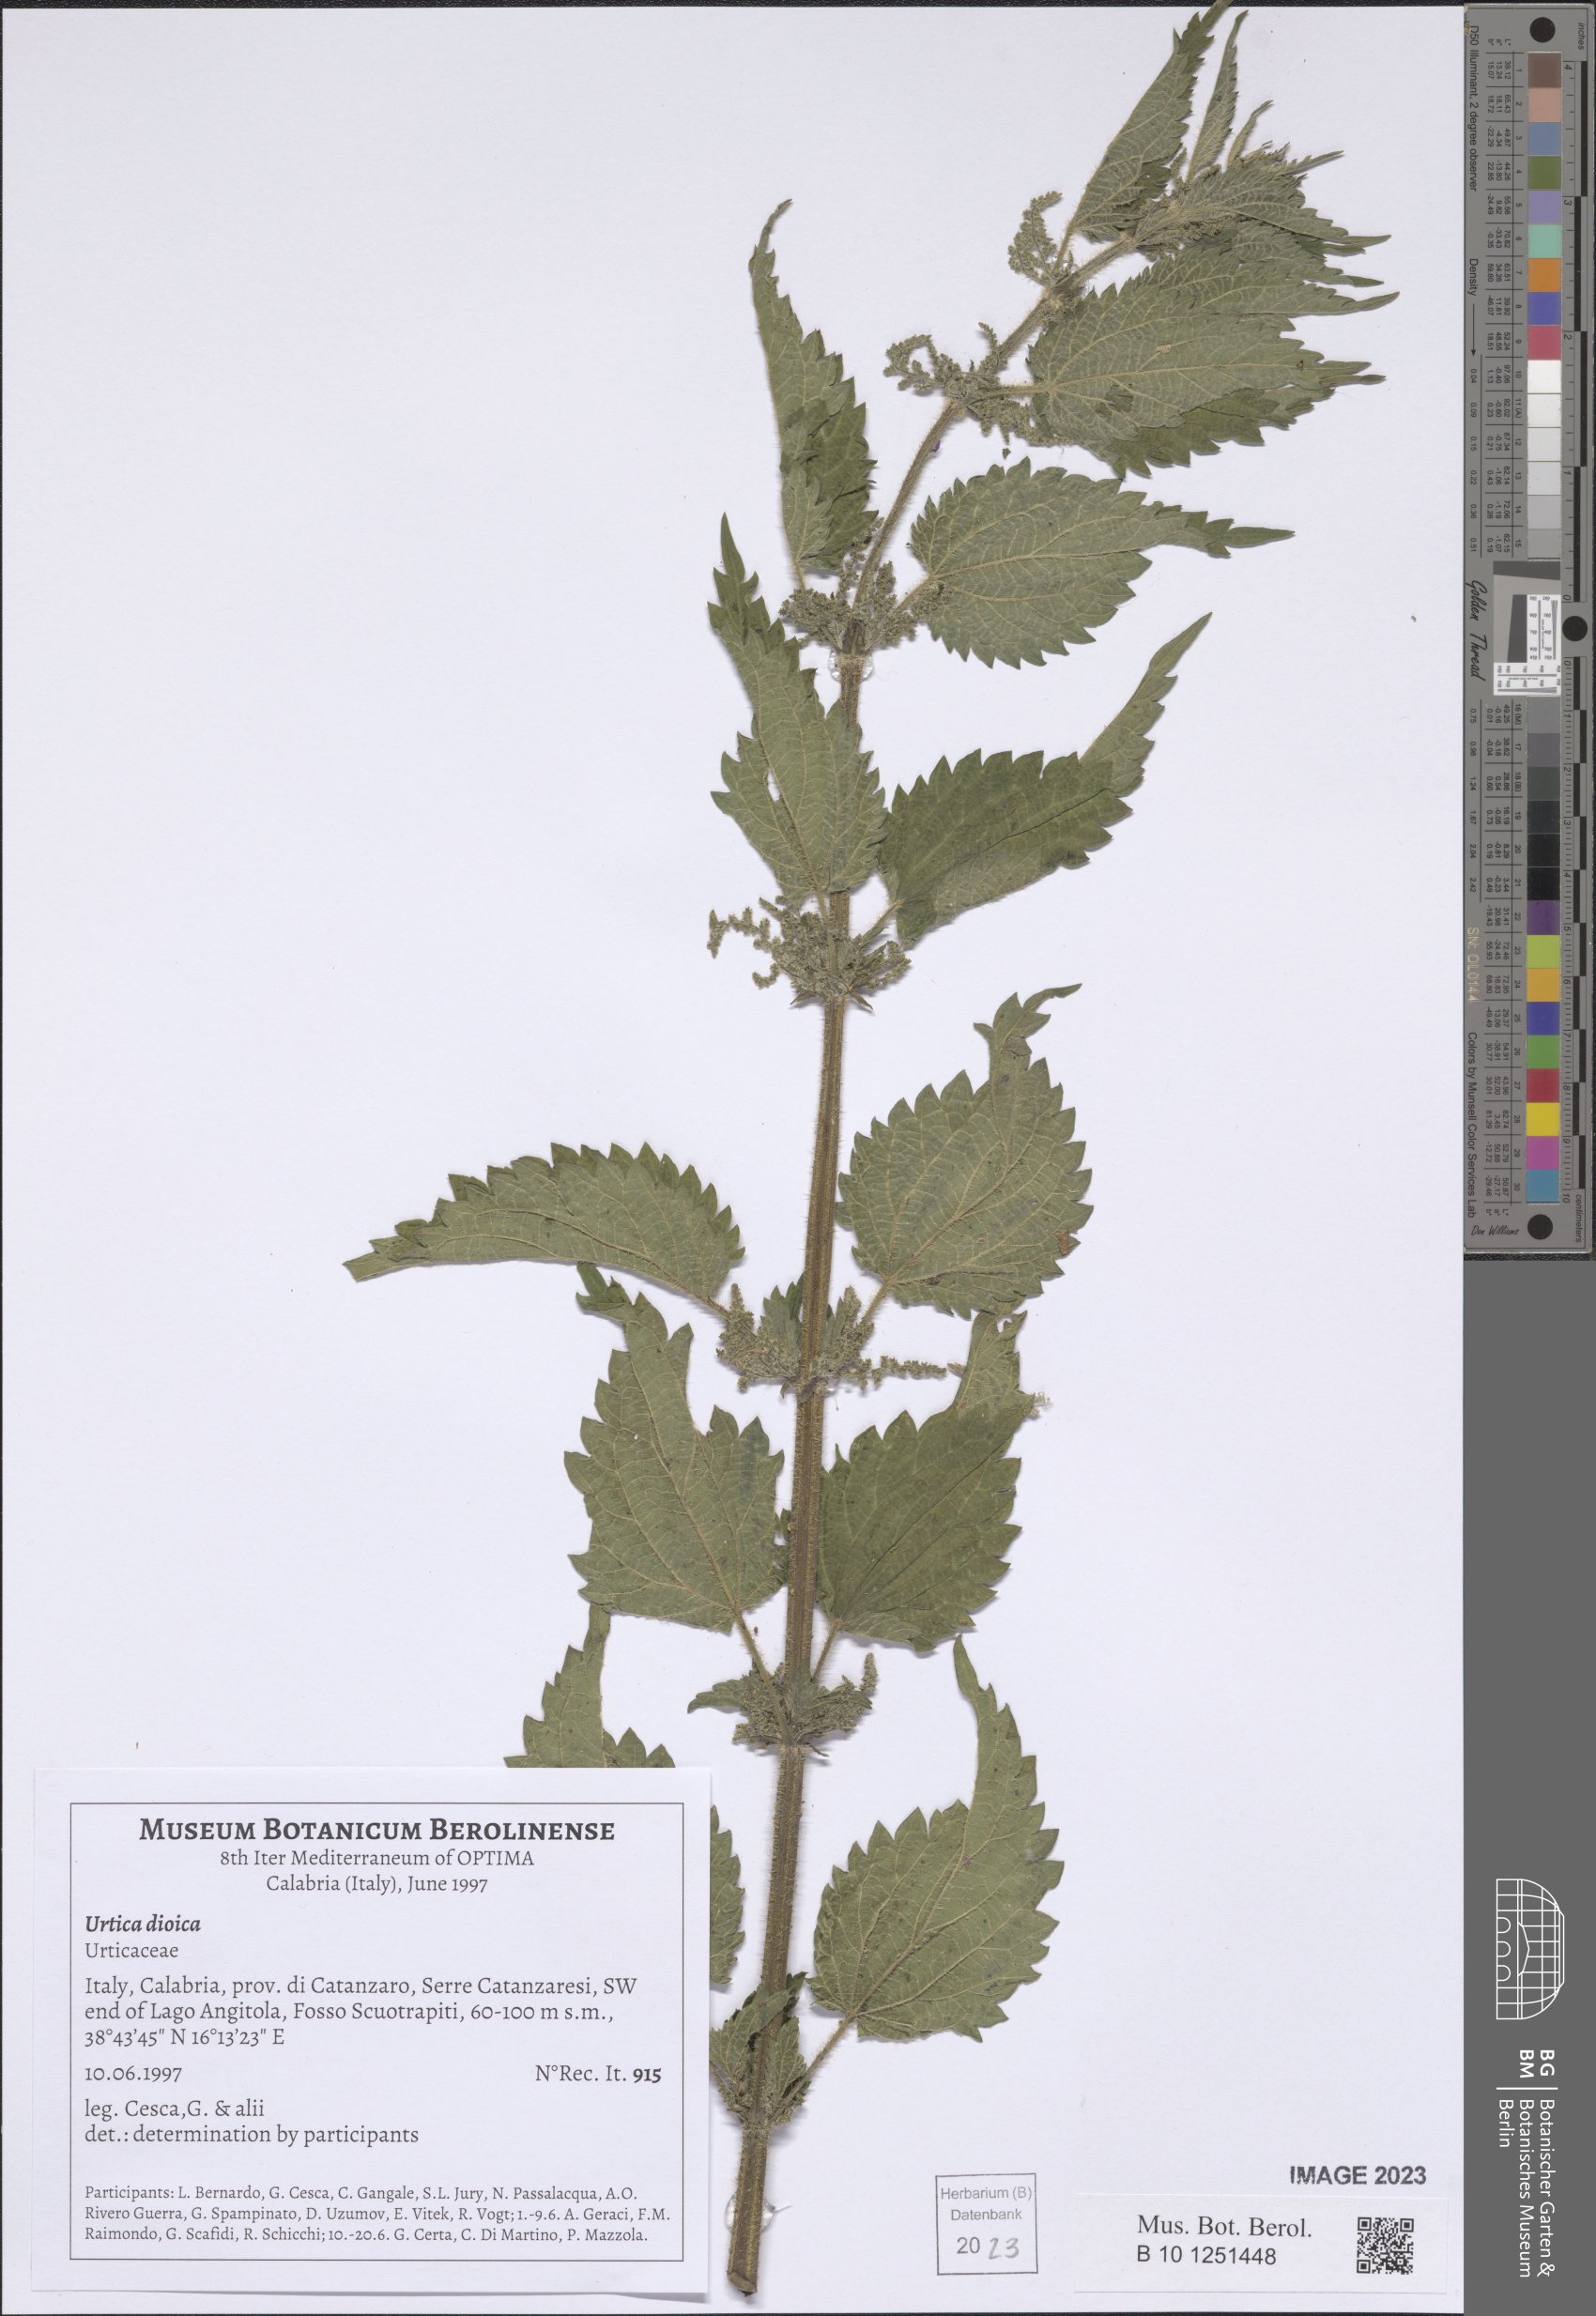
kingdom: Plantae
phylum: Tracheophyta
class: Magnoliopsida
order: Rosales
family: Urticaceae
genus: Urtica
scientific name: Urtica dioica
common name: Common nettle
